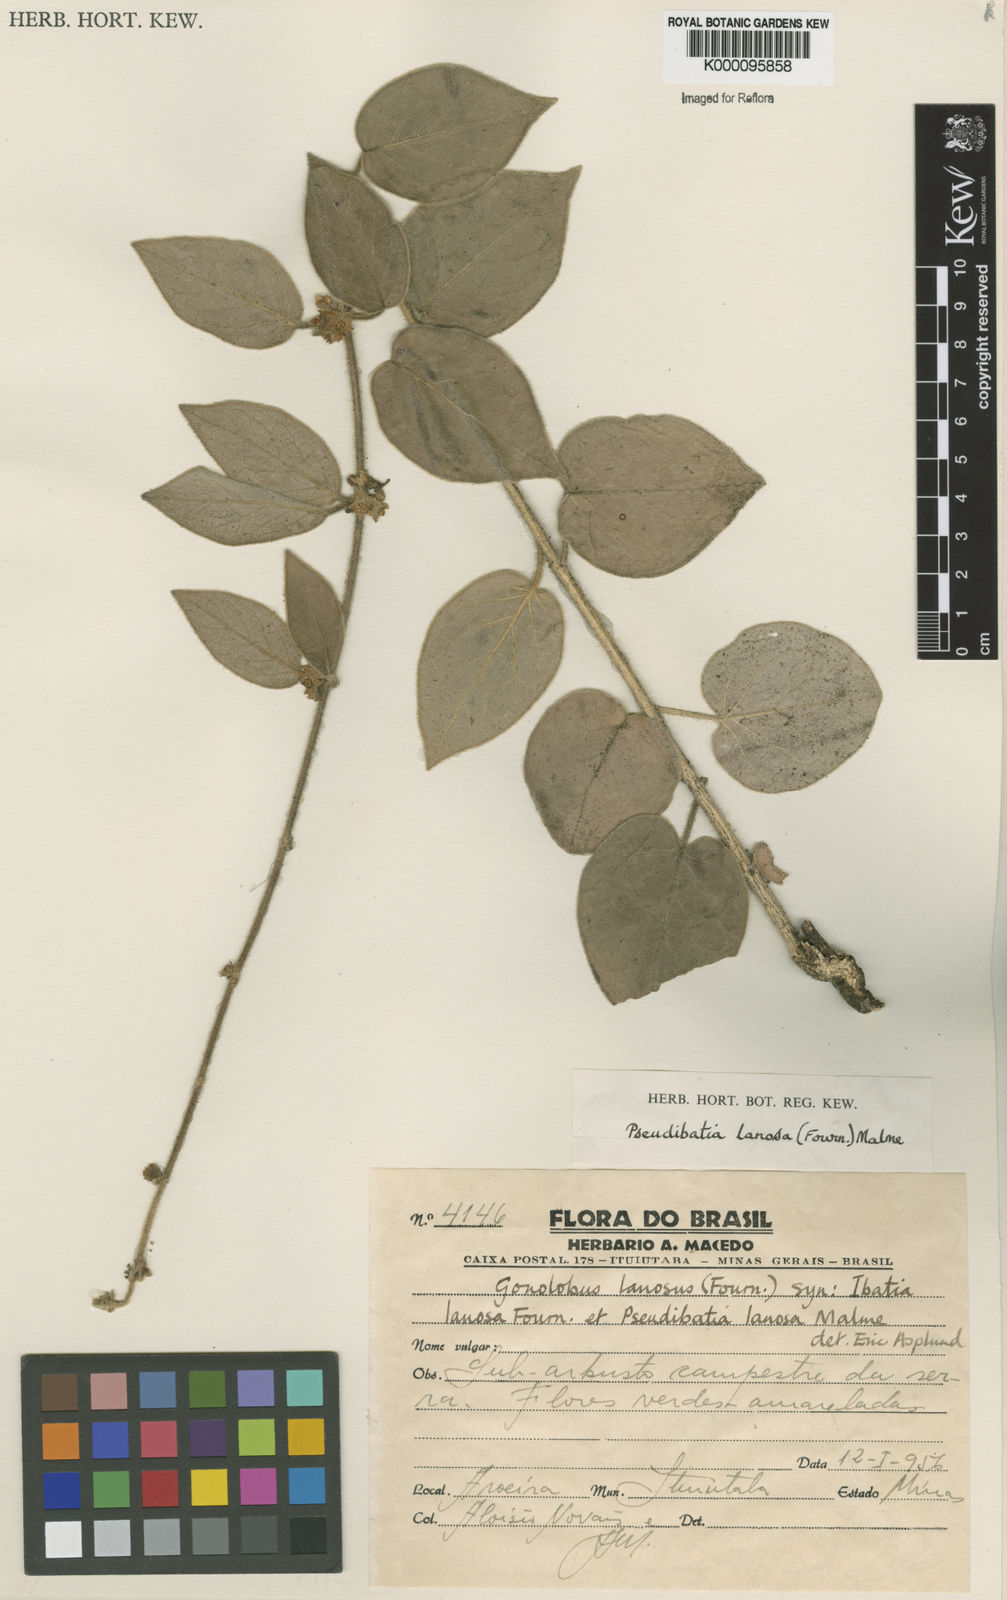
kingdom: Plantae
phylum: Tracheophyta
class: Magnoliopsida
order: Gentianales
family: Apocynaceae
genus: Ibatia
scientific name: Ibatia lanosa
